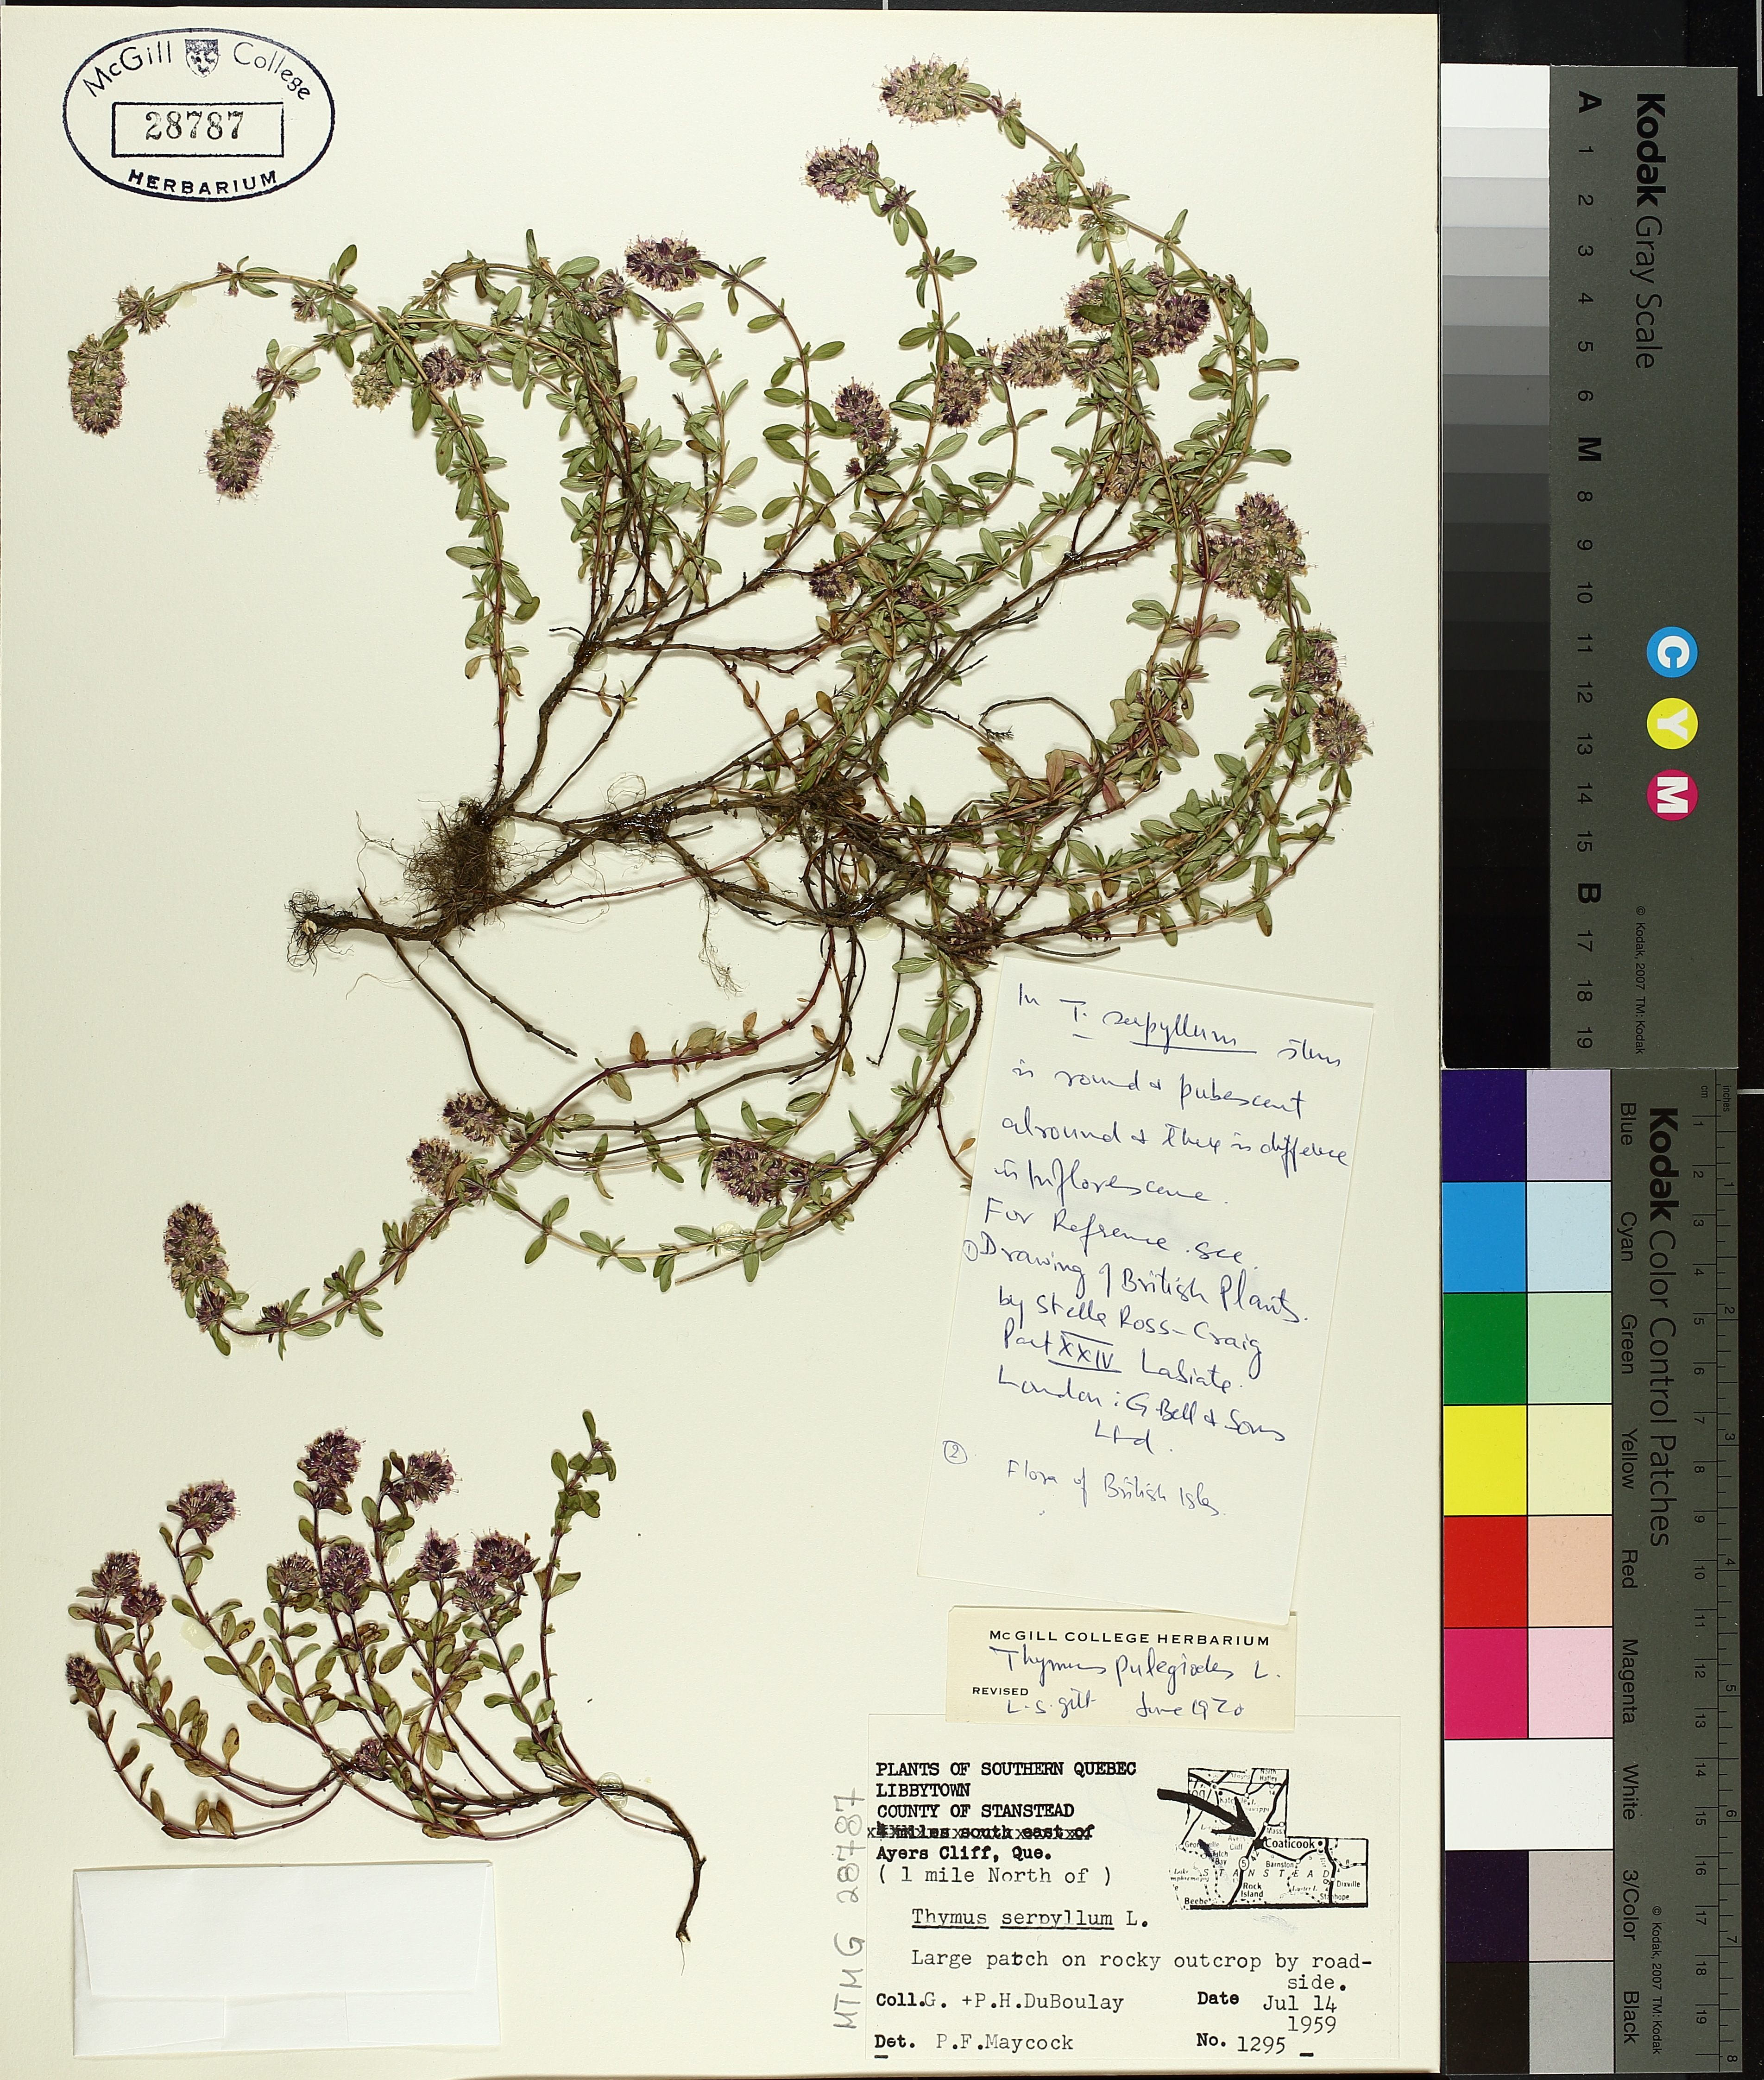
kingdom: Plantae
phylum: Tracheophyta
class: Magnoliopsida
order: Lamiales
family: Lamiaceae
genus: Thymus
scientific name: Thymus pulegioides
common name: Large thyme
